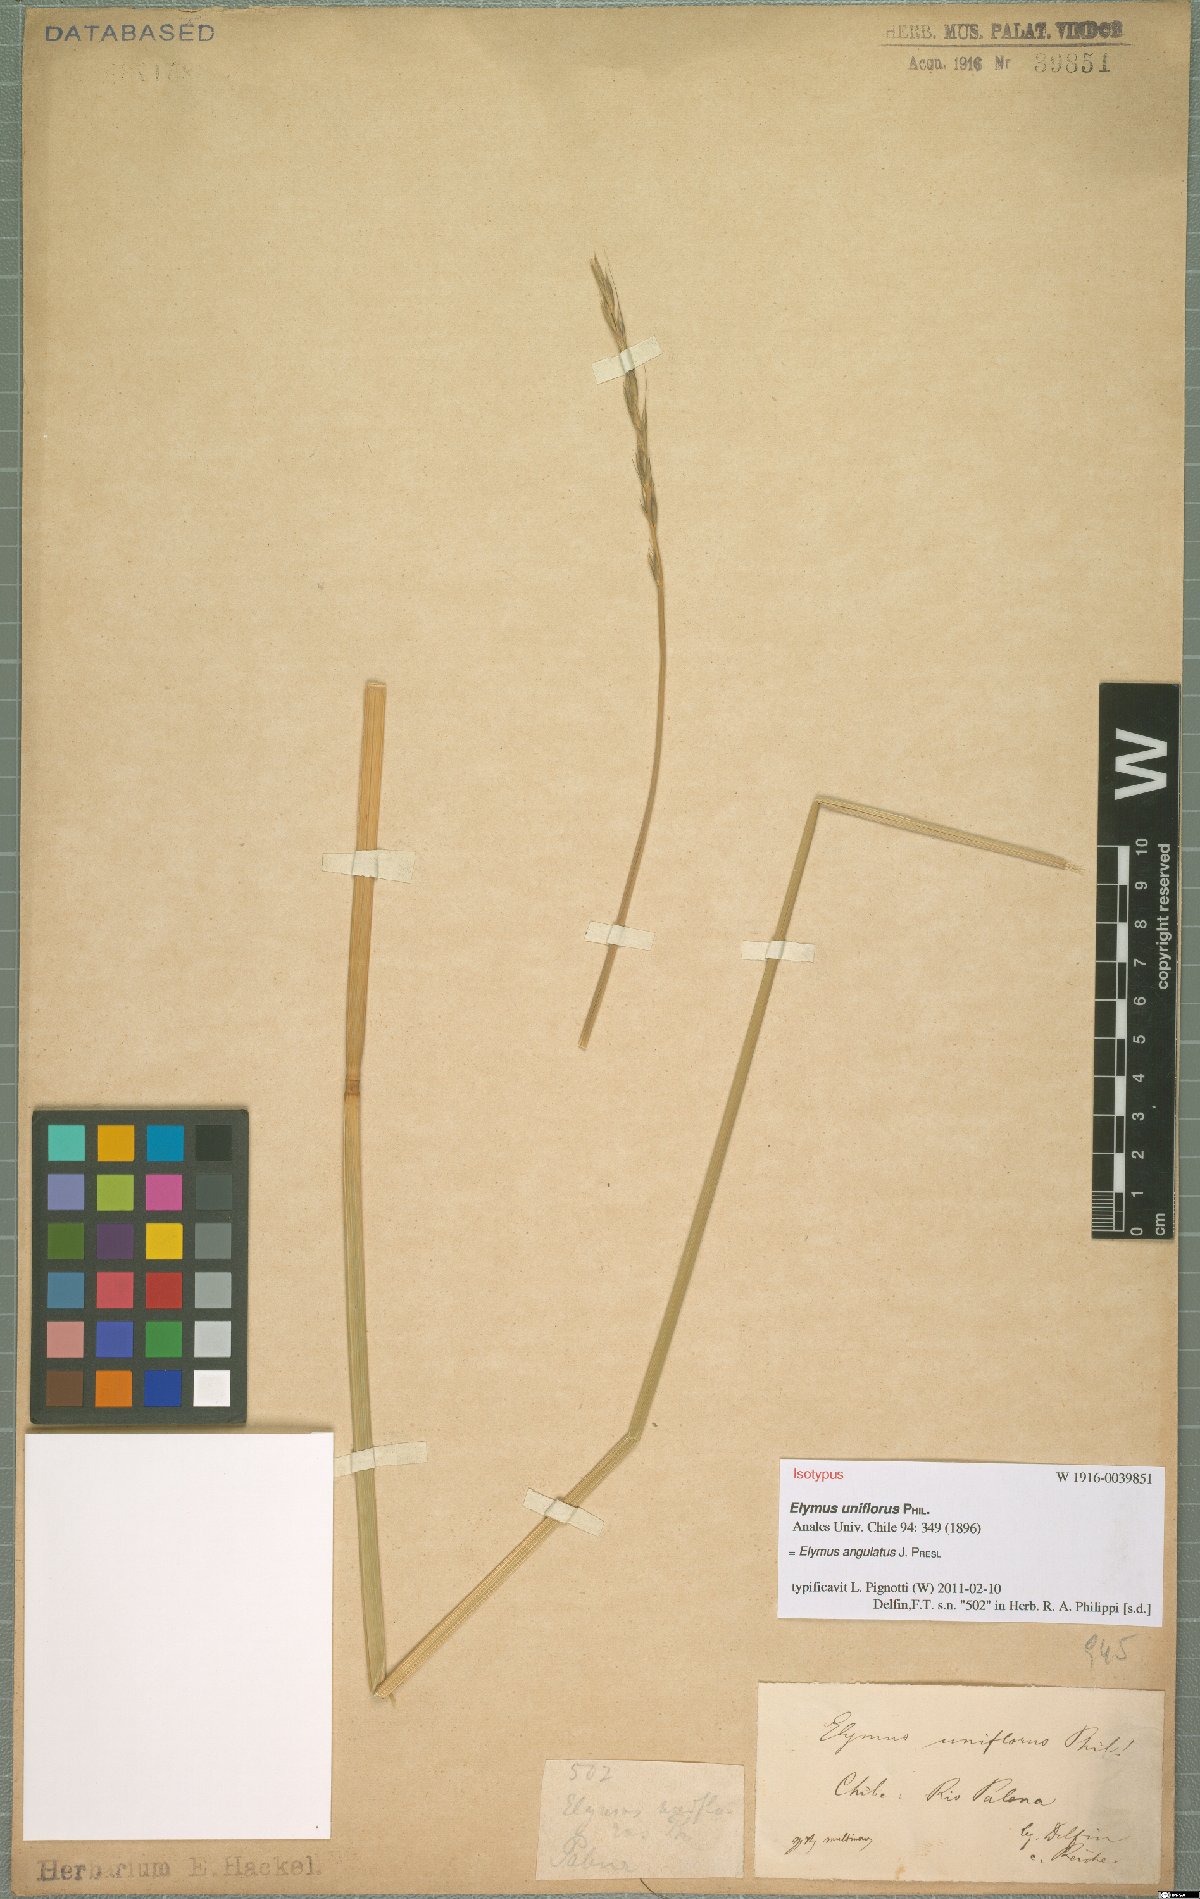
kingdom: Plantae
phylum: Tracheophyta
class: Liliopsida
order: Poales
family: Poaceae
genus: Elymus
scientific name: Elymus angulatus
